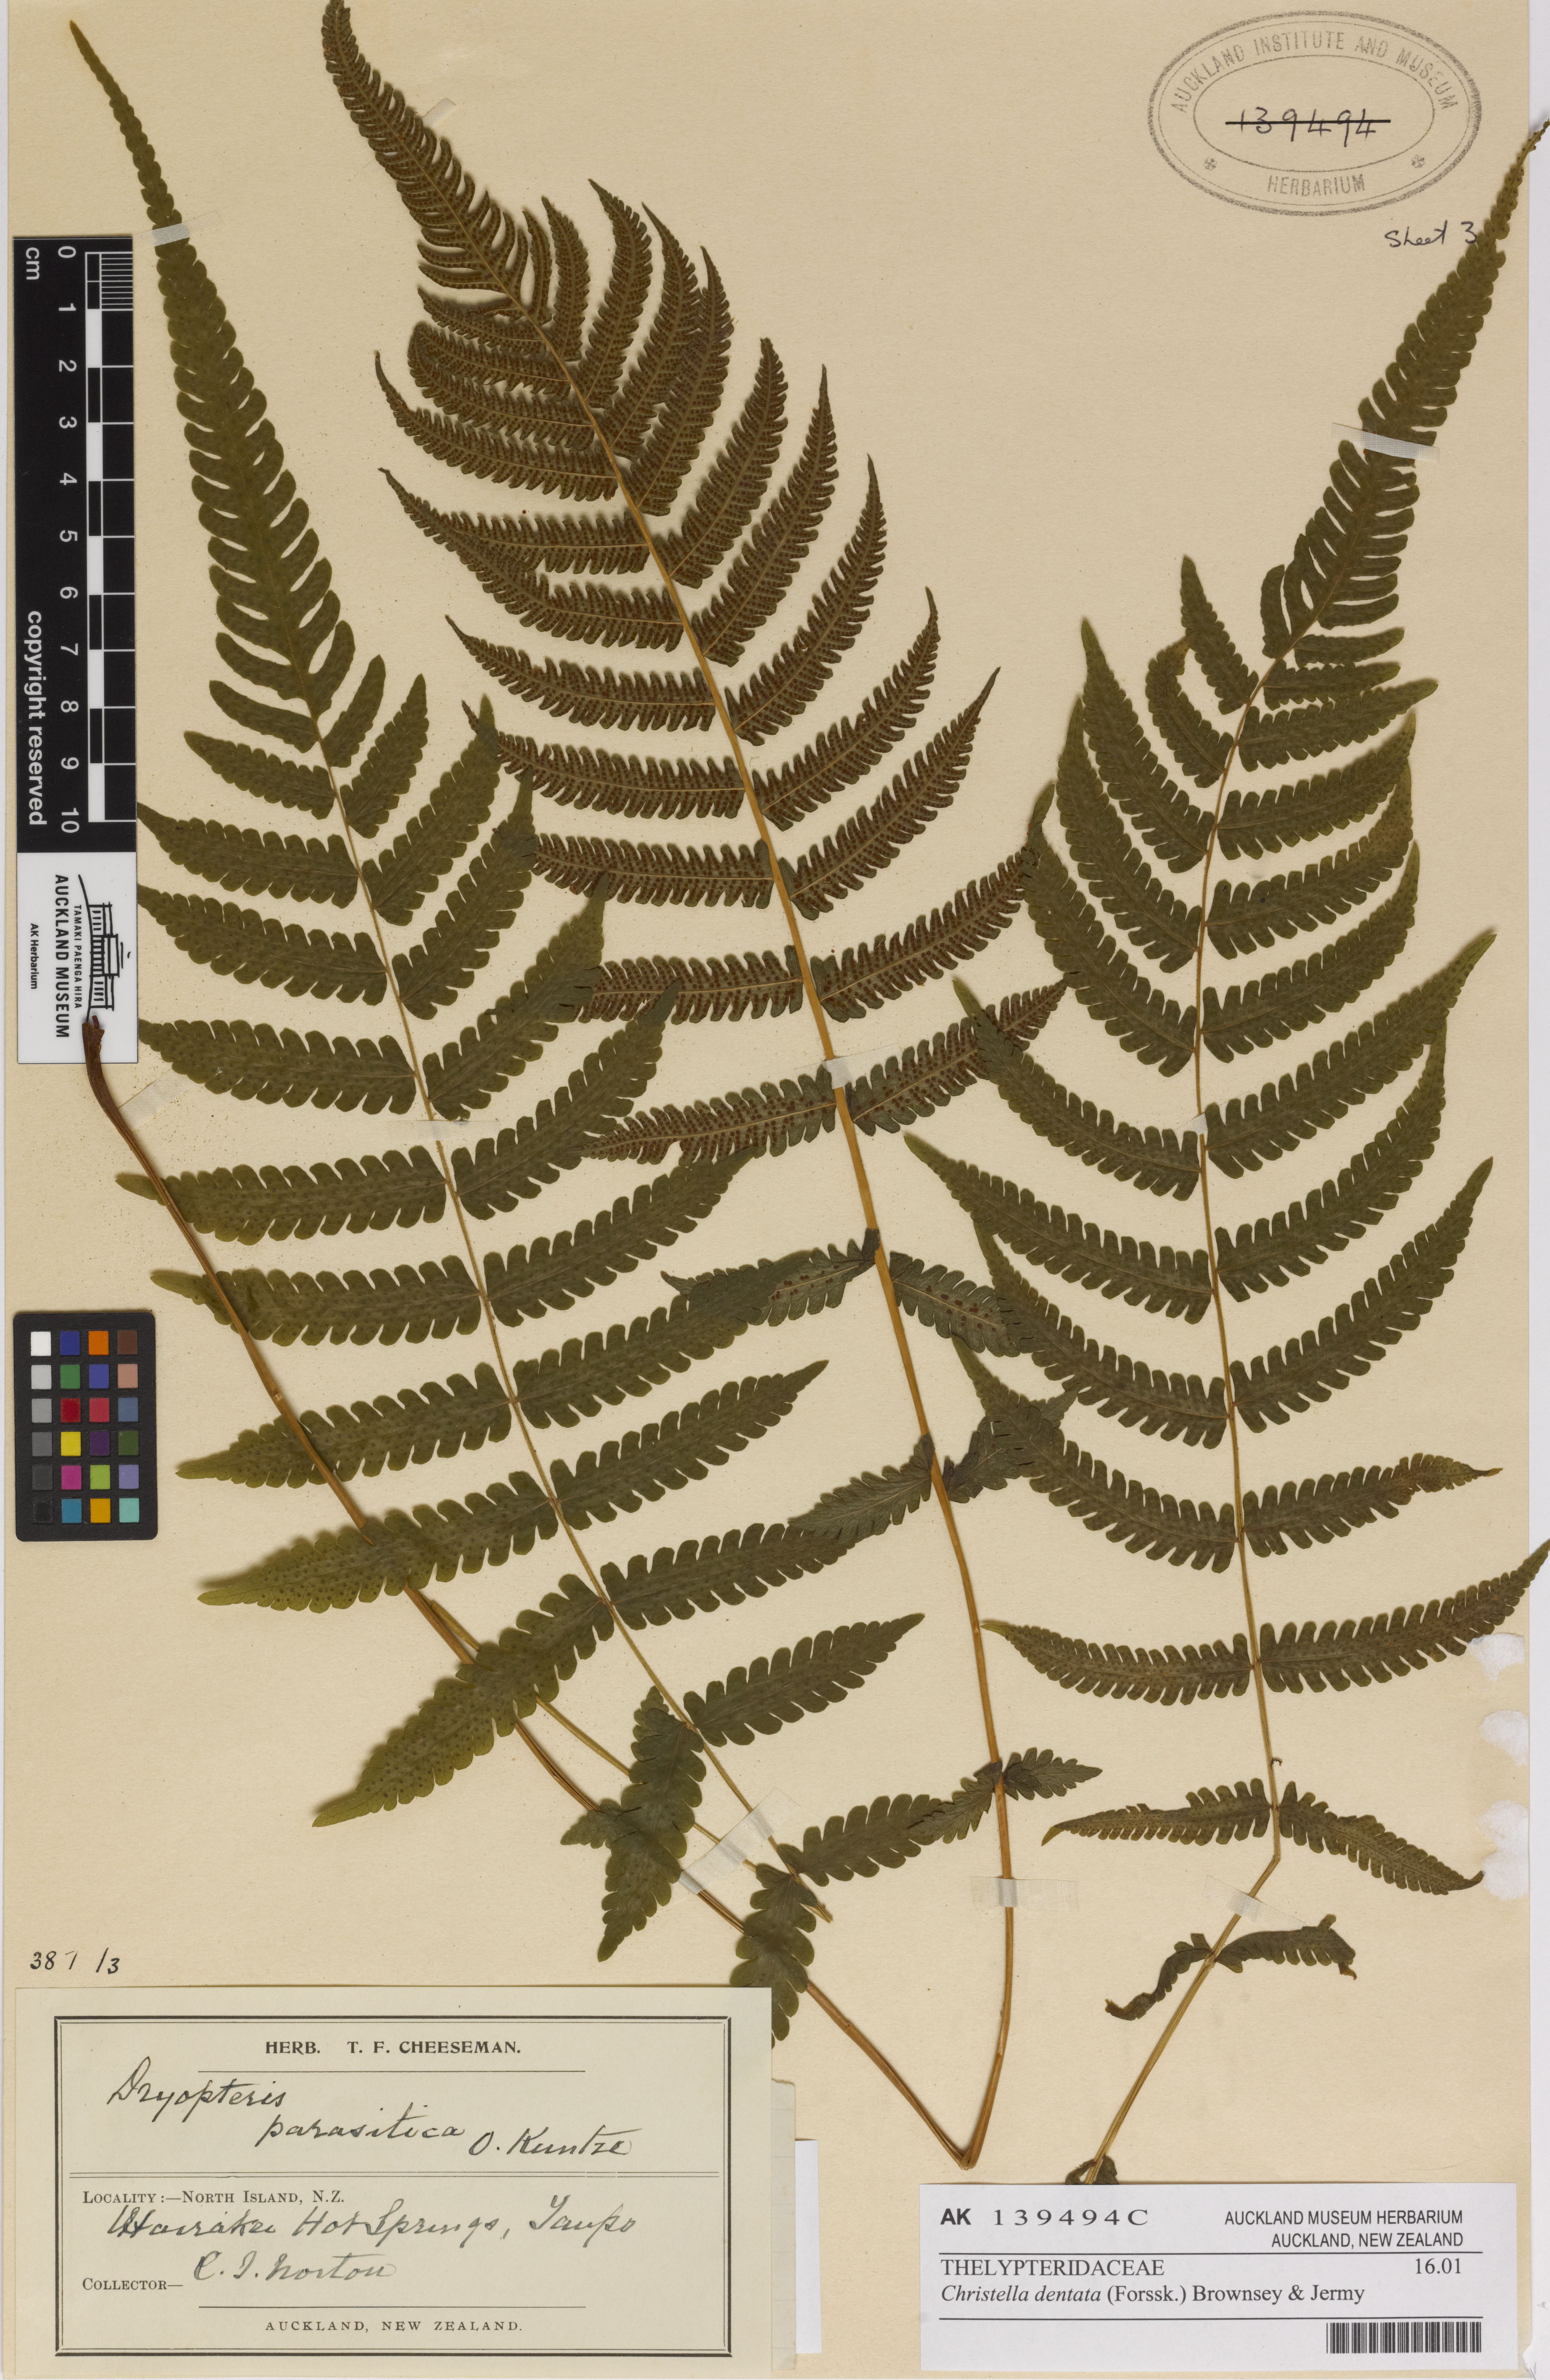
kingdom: Plantae
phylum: Tracheophyta
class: Polypodiopsida
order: Polypodiales
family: Thelypteridaceae
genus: Christella
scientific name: Christella dentata
